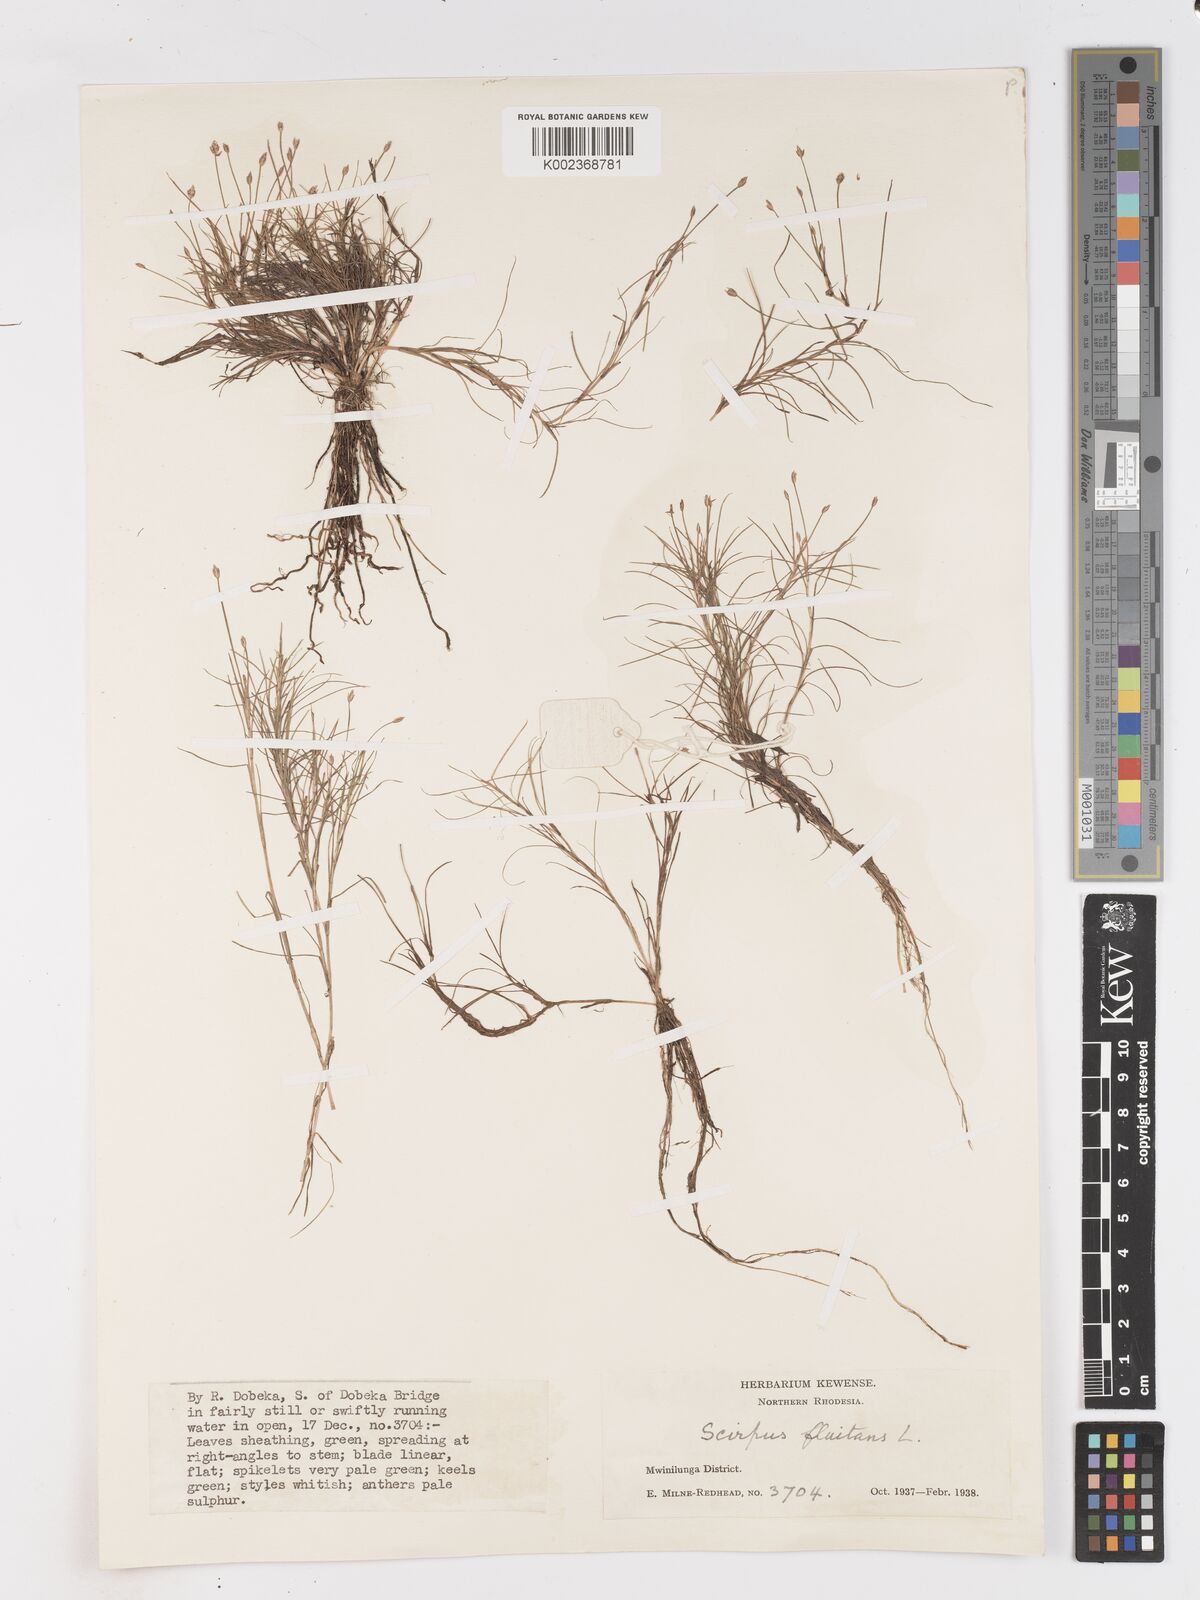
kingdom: Plantae
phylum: Tracheophyta
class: Liliopsida
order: Poales
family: Cyperaceae
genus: Isolepis
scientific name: Isolepis fluitans
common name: Floating club-rush
